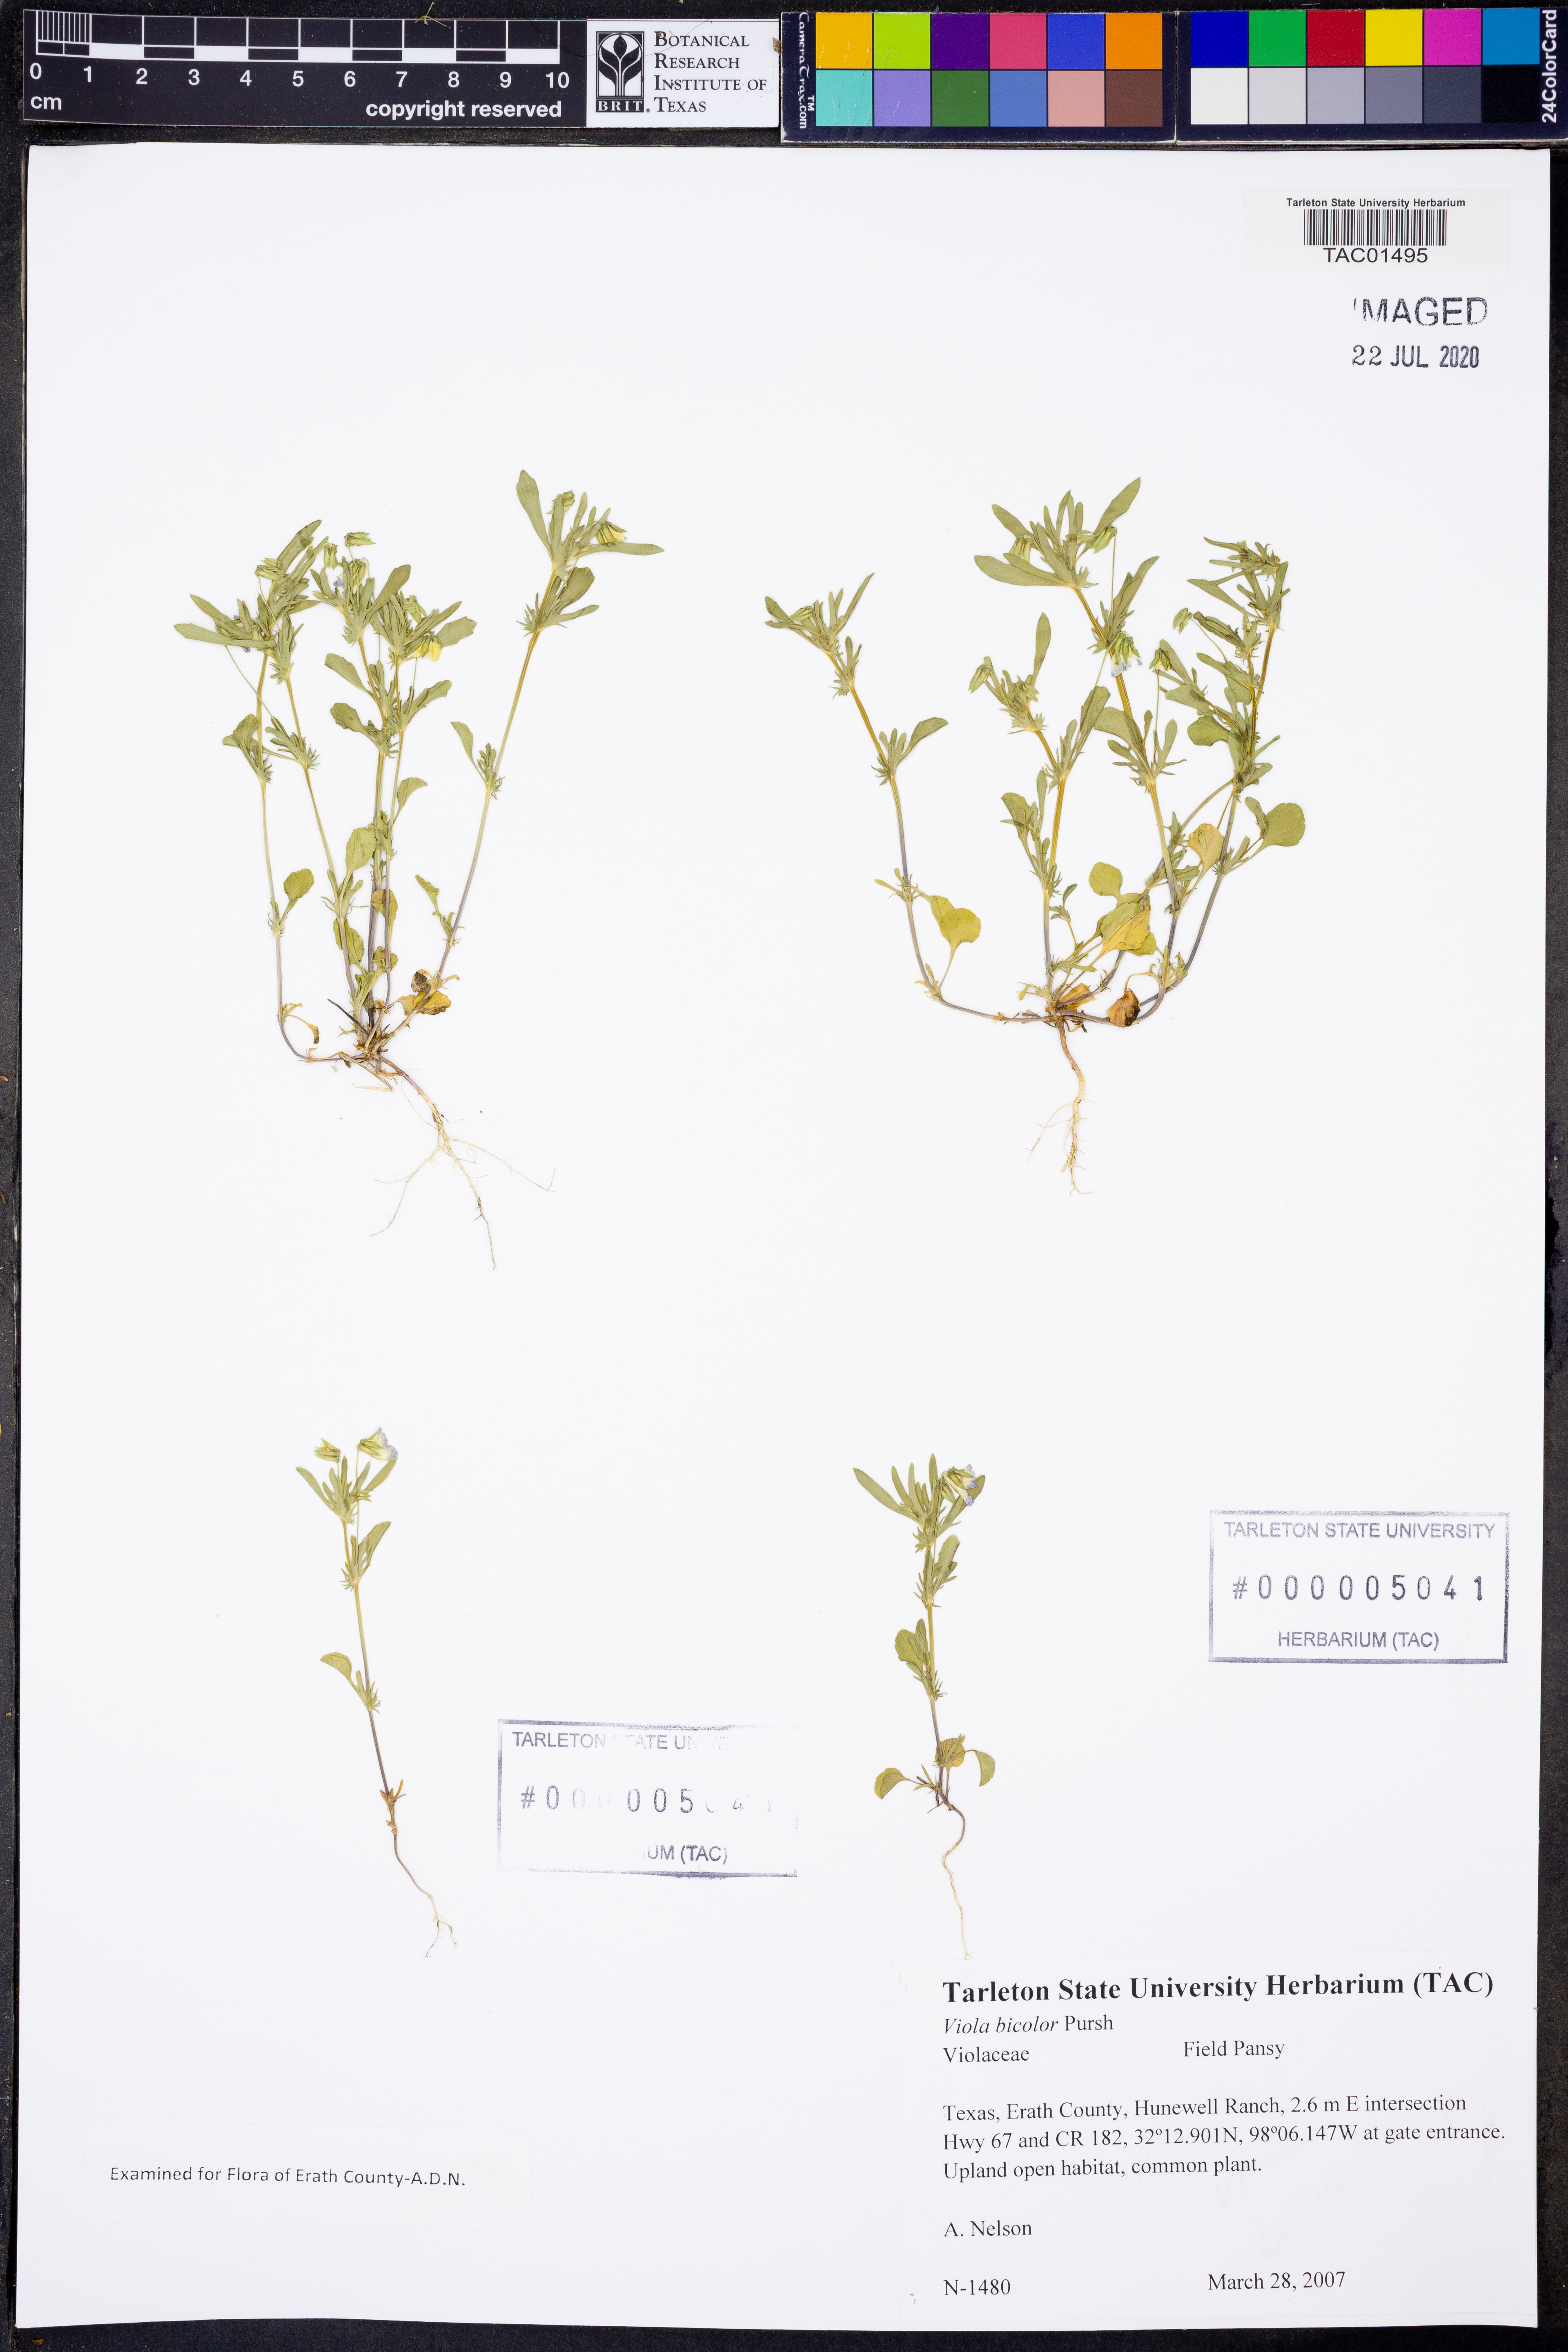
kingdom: Plantae
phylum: Tracheophyta
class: Magnoliopsida
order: Malpighiales
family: Violaceae
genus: Viola
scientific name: Viola rafinesquei
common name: American field pansy
